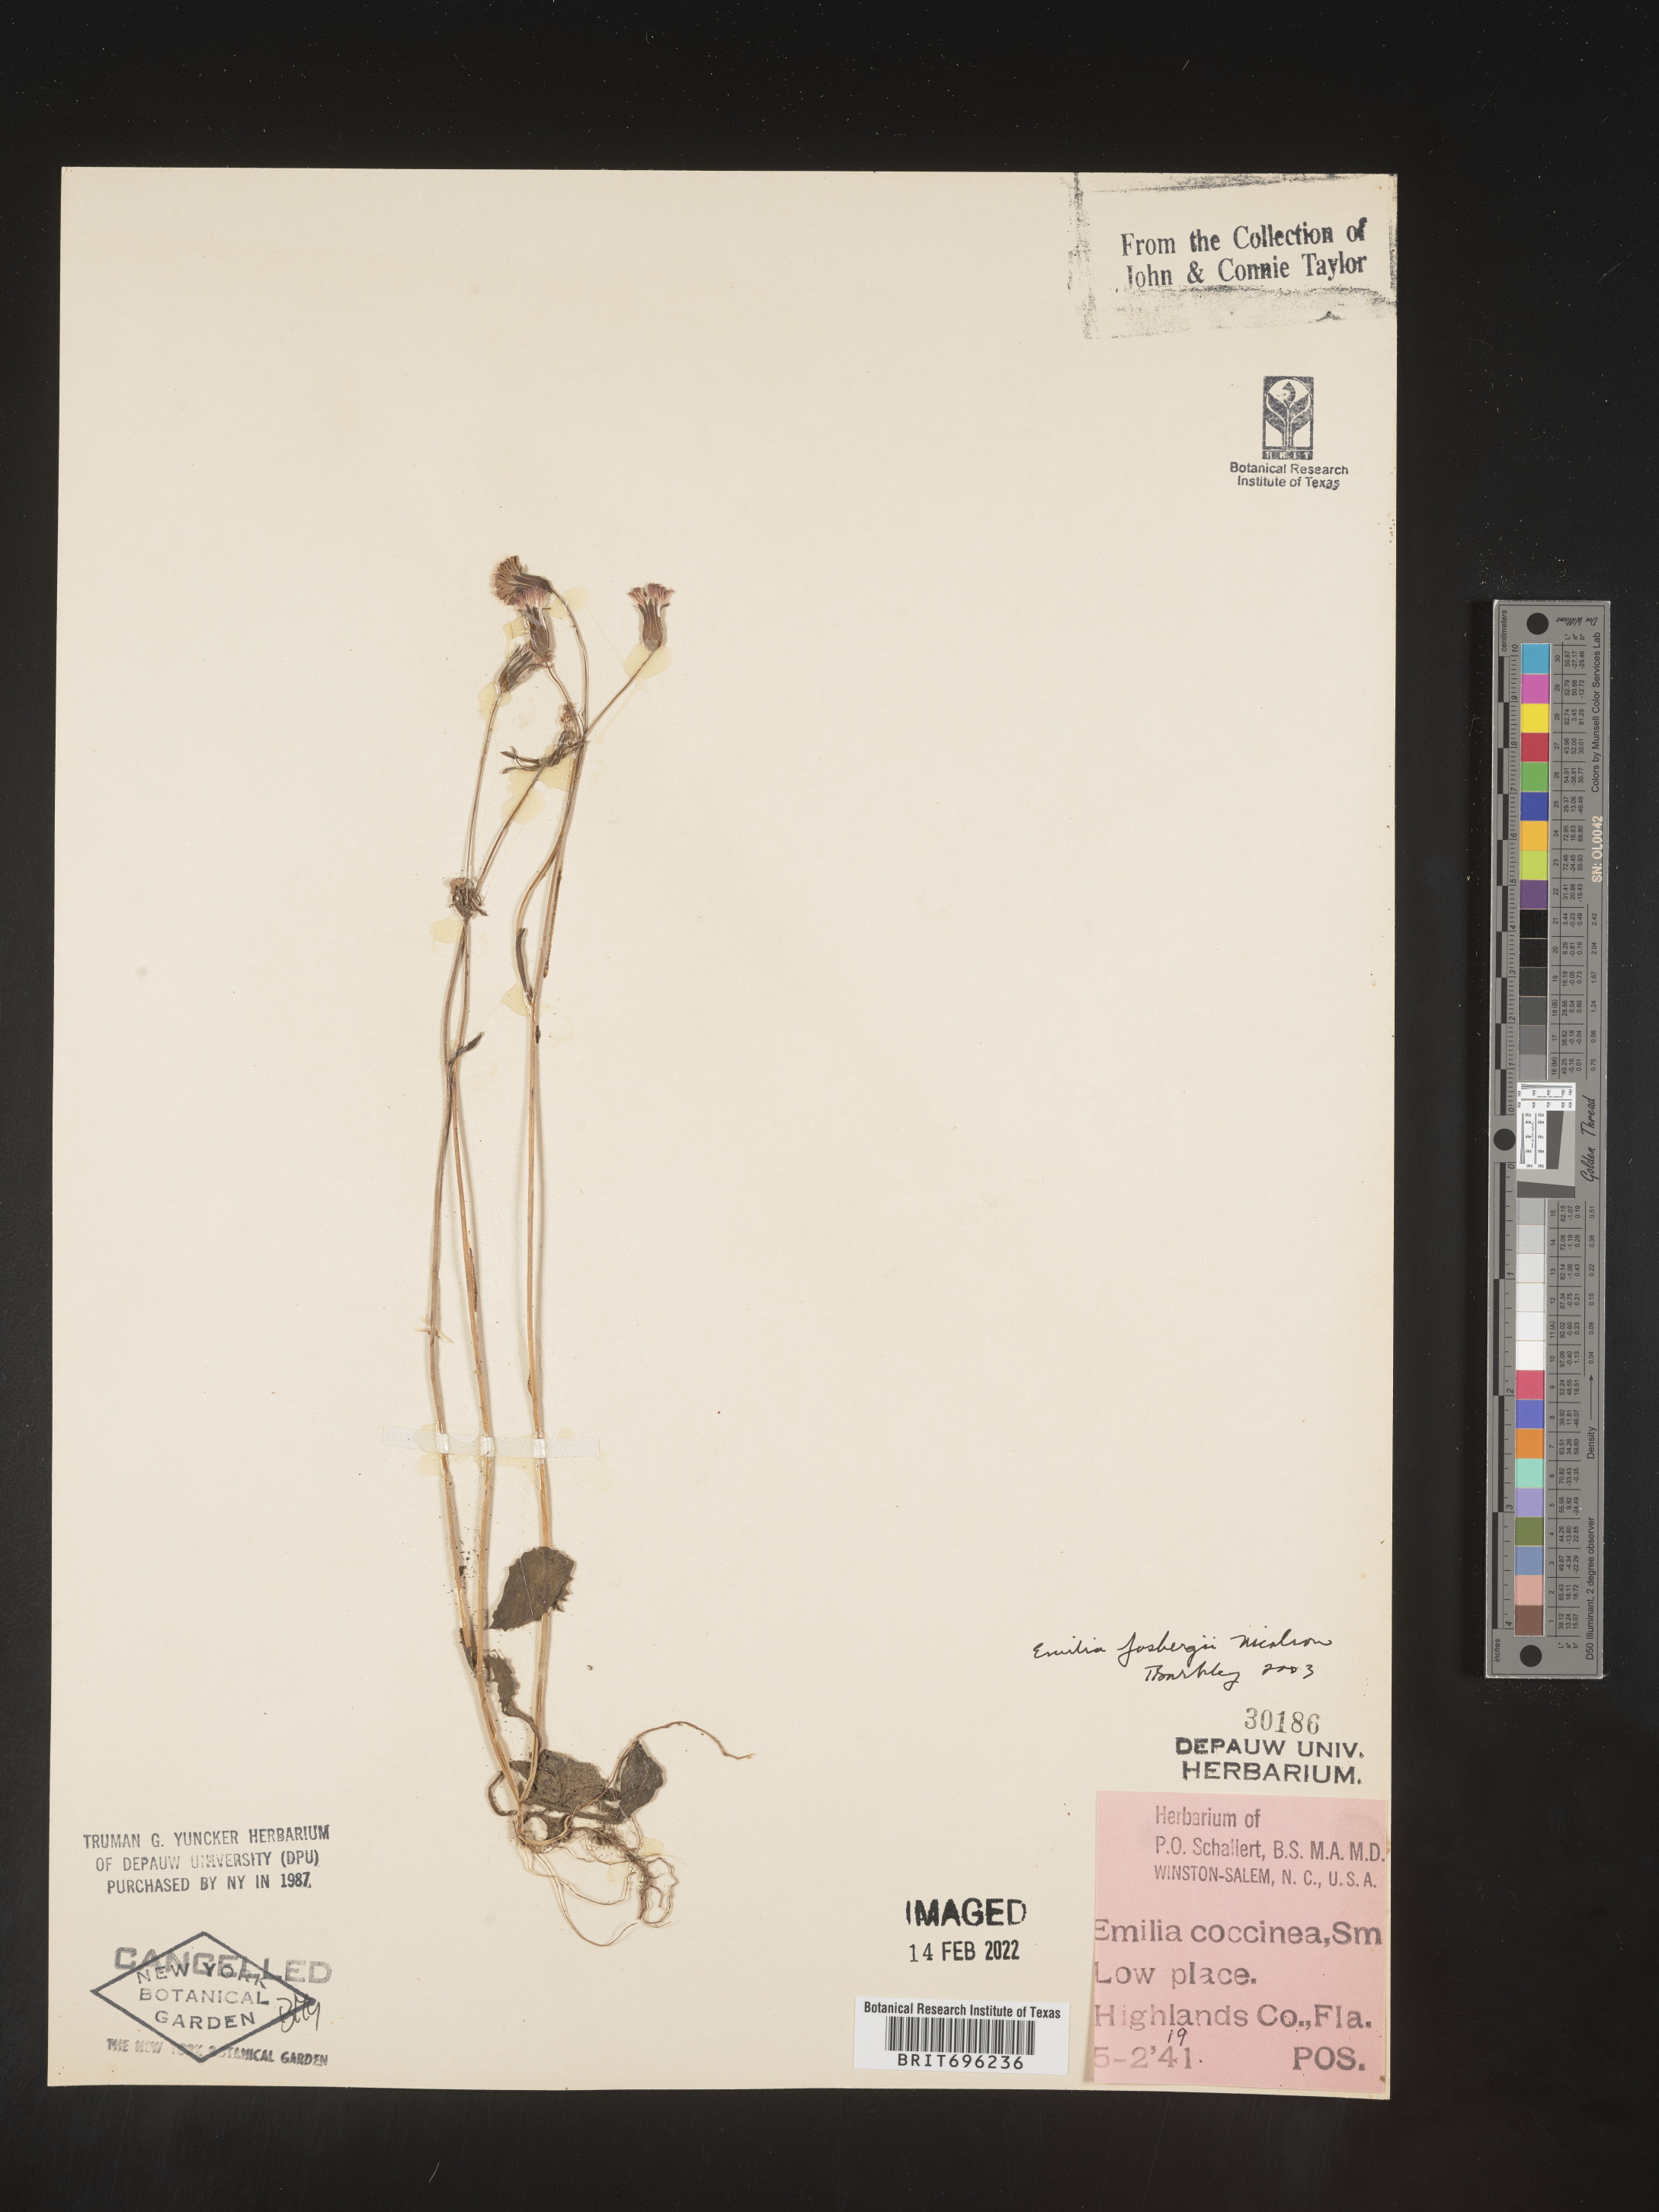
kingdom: Plantae
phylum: Tracheophyta
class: Magnoliopsida
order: Asterales
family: Asteraceae
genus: Emilia
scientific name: Emilia fosbergii
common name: Florida tasselflower
